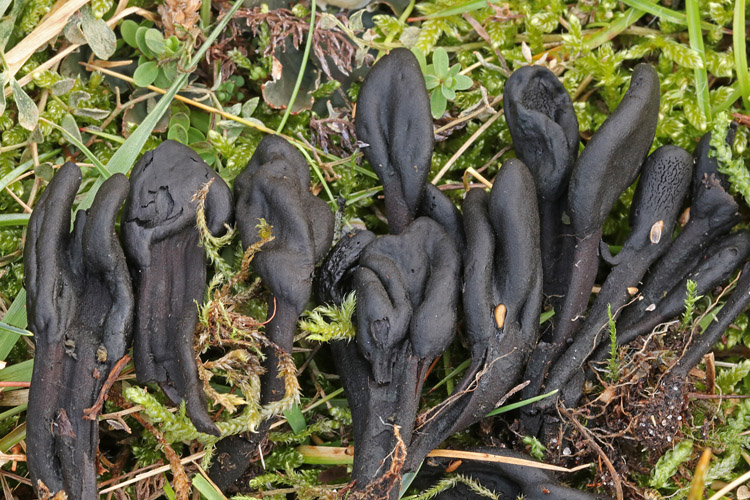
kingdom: Fungi
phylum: Ascomycota
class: Geoglossomycetes
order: Geoglossales
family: Geoglossaceae
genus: Trichoglossum
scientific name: Trichoglossum hirsutum
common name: håret jordtunge
